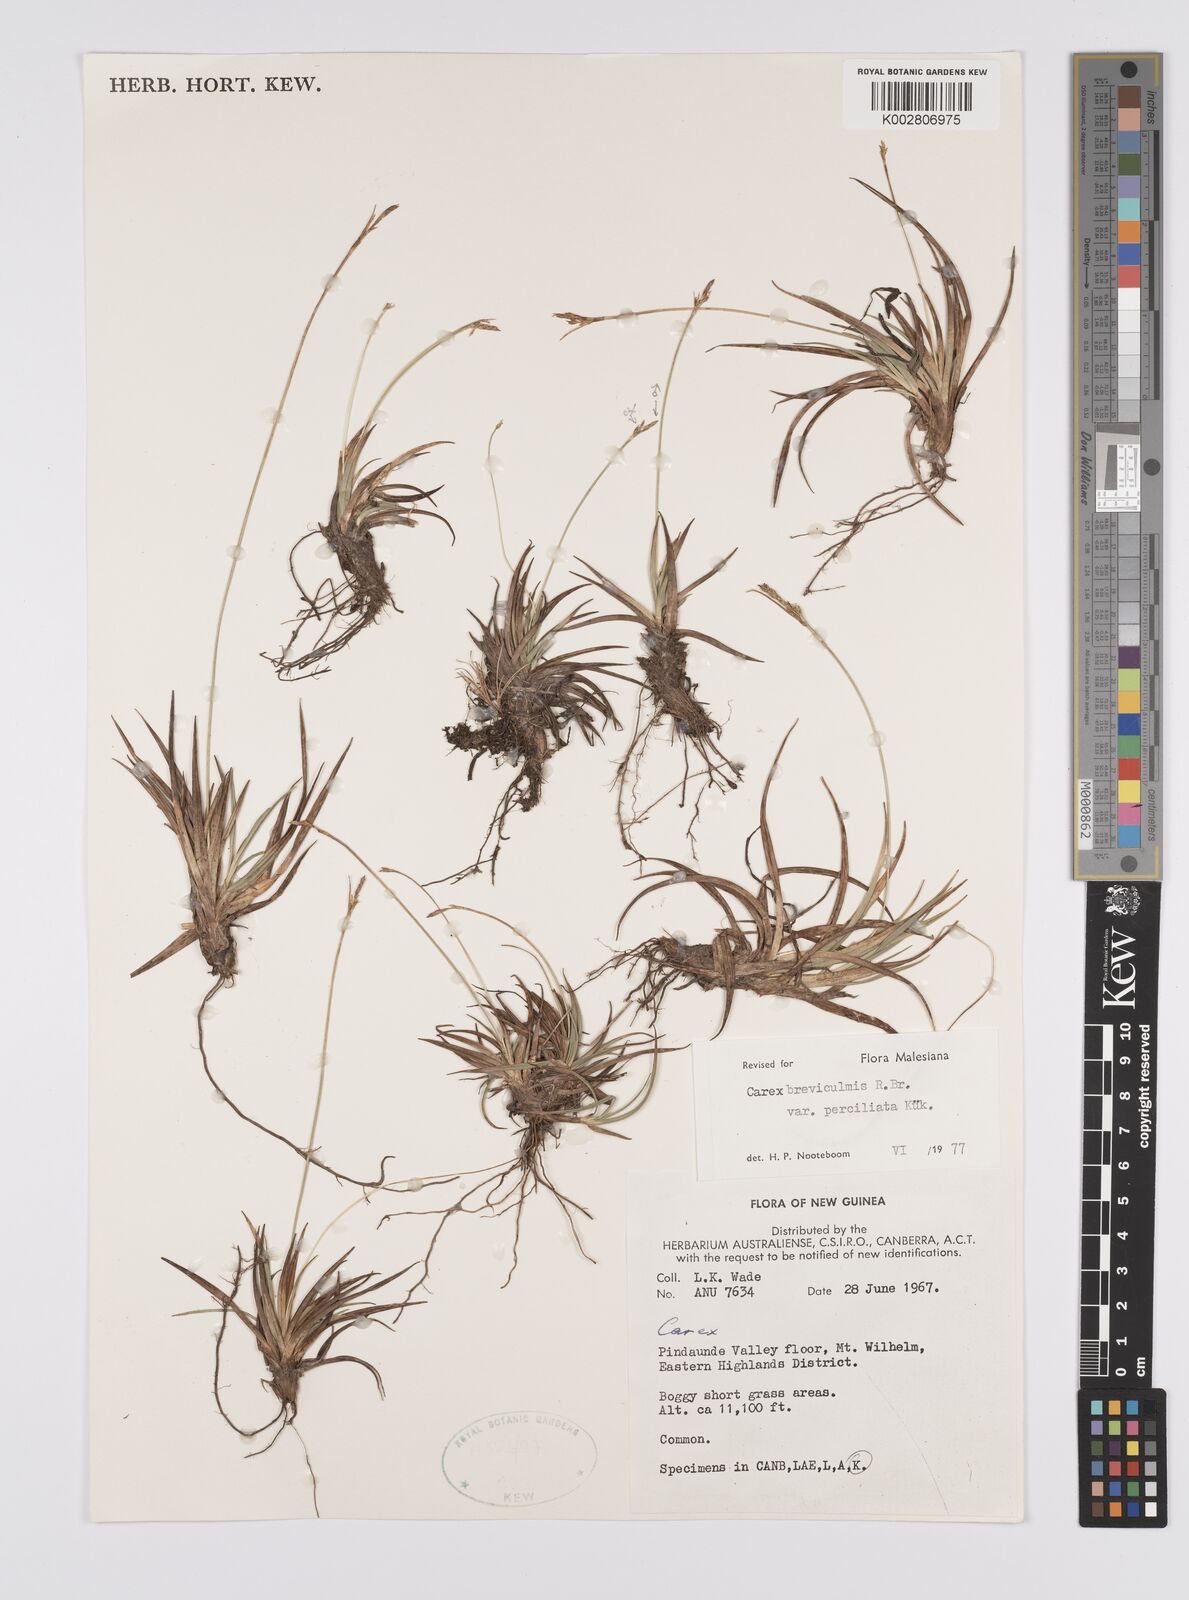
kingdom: Plantae
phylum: Tracheophyta
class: Liliopsida
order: Poales
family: Cyperaceae
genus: Carex
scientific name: Carex breviculmis
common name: Asian shortstem sedge
